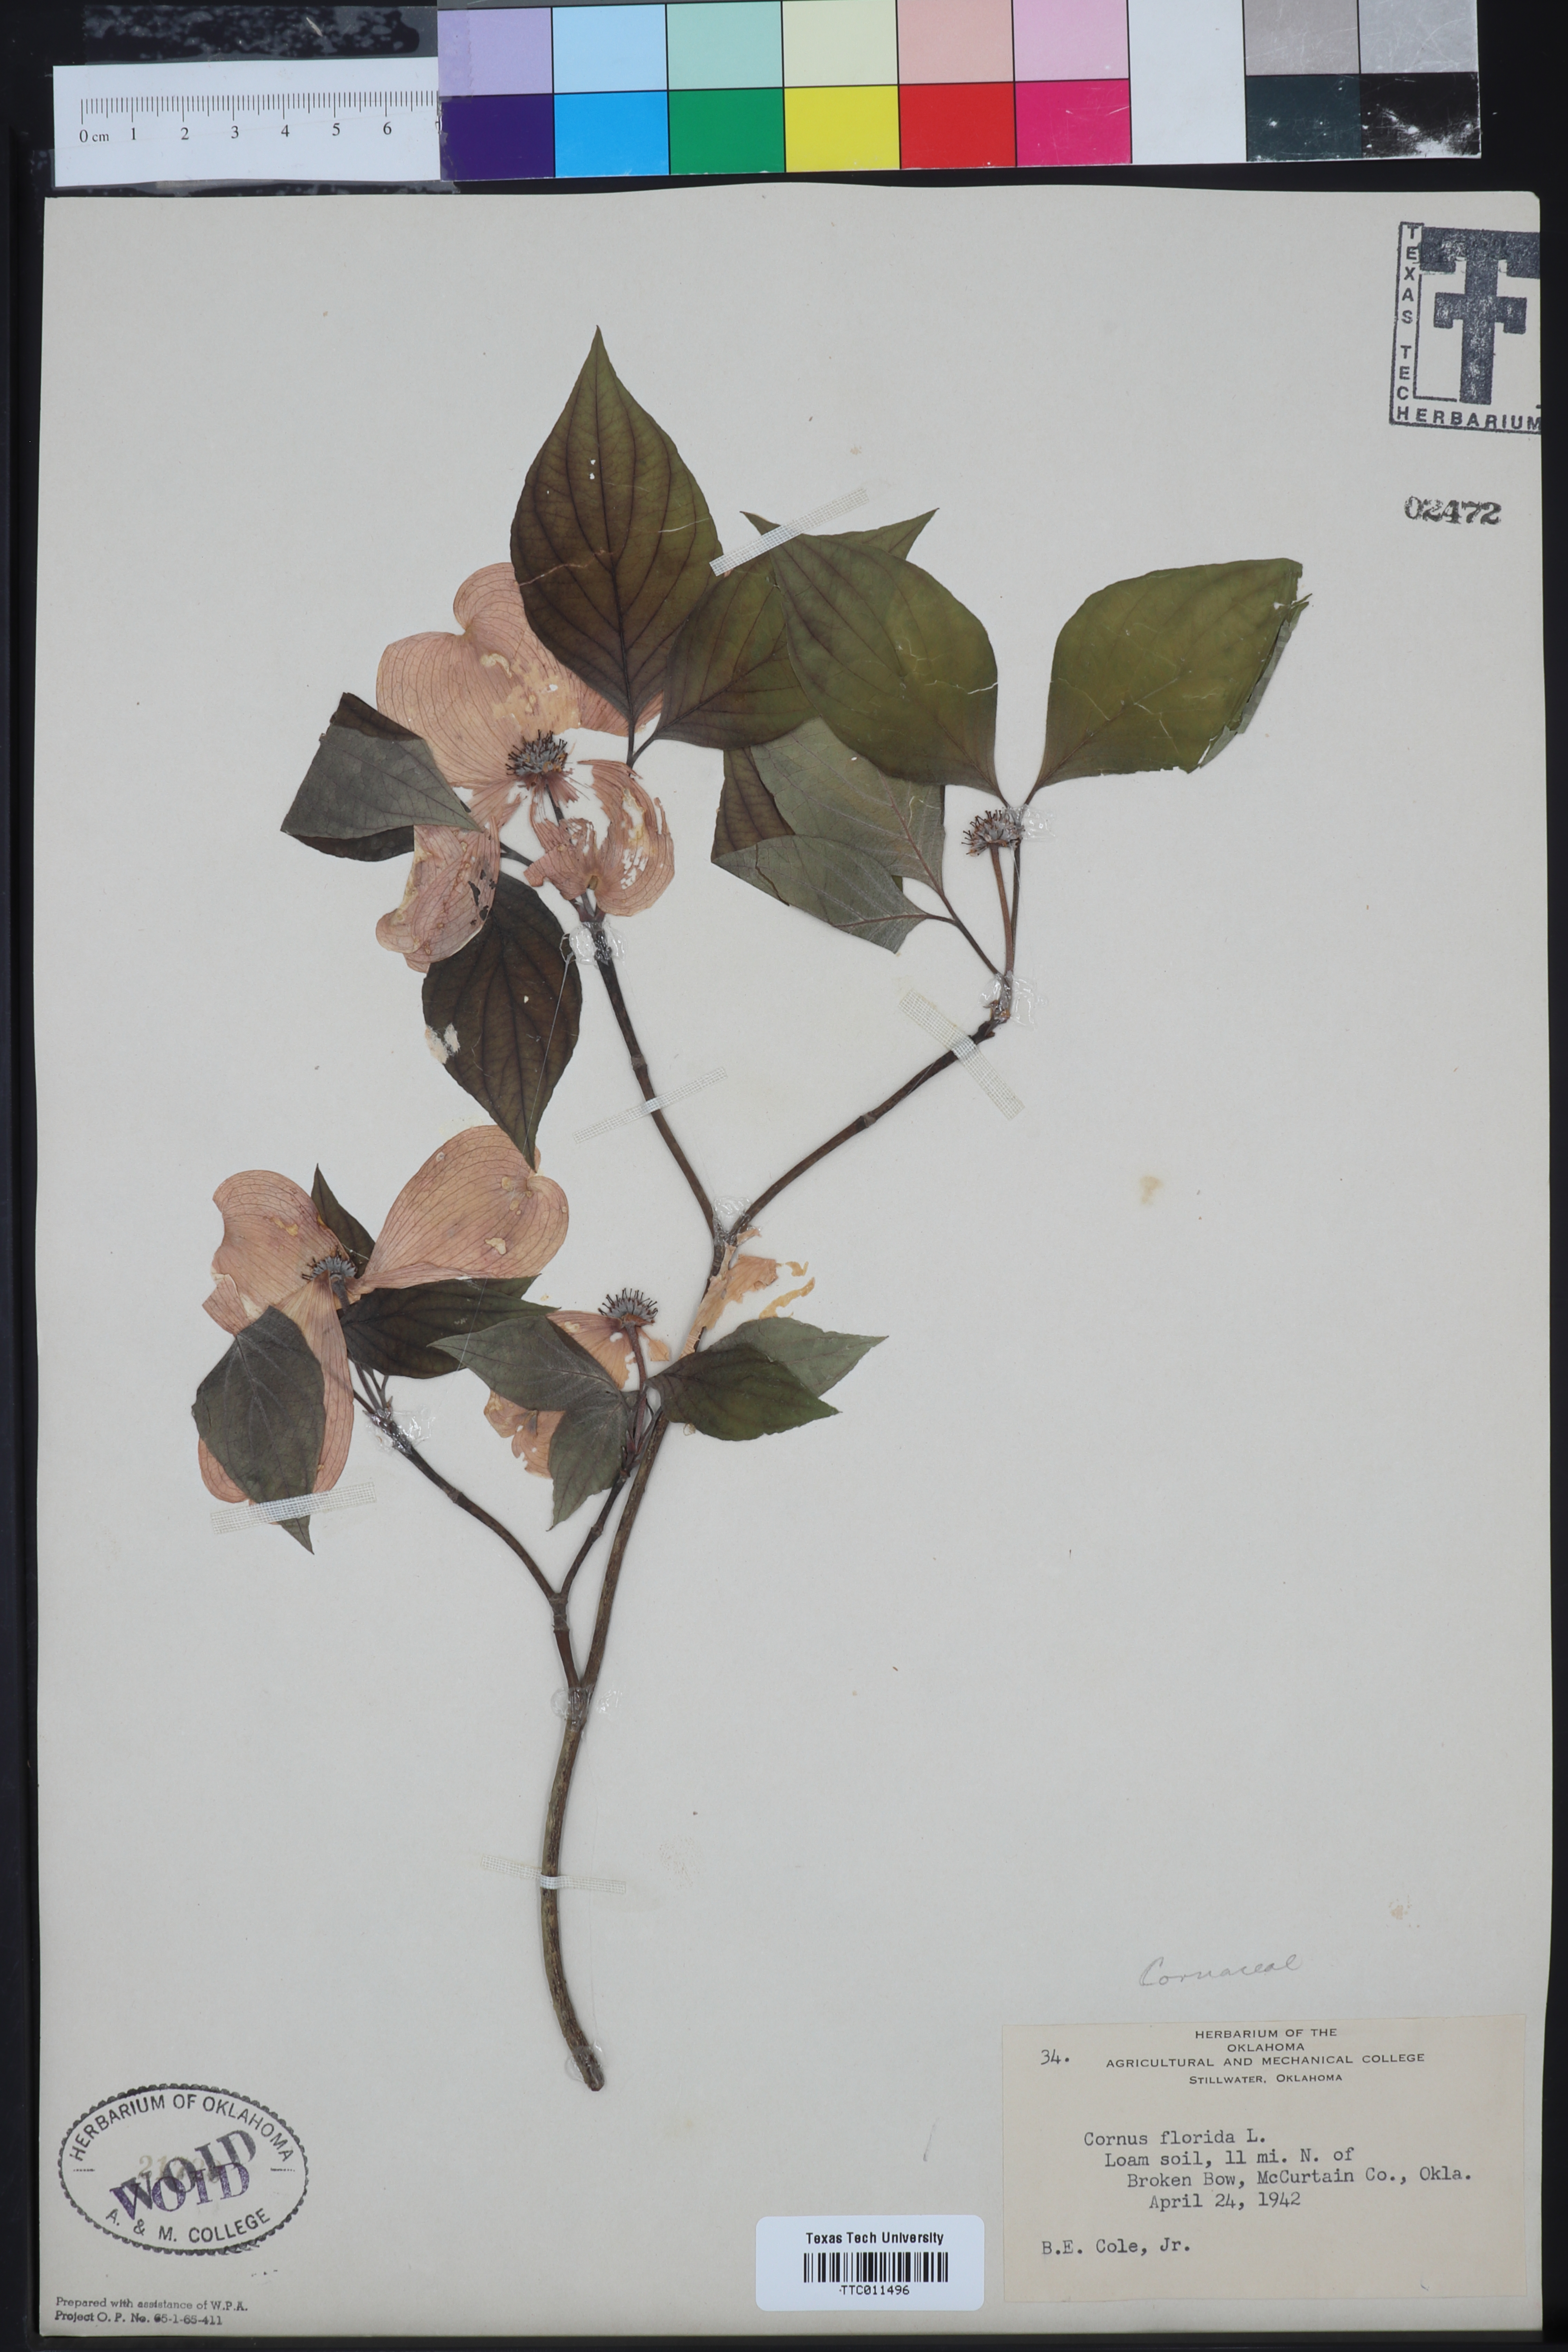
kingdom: Plantae
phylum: Tracheophyta
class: Magnoliopsida
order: Cornales
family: Cornaceae
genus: Cornus
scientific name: Cornus florida
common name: Flowering dogwood
